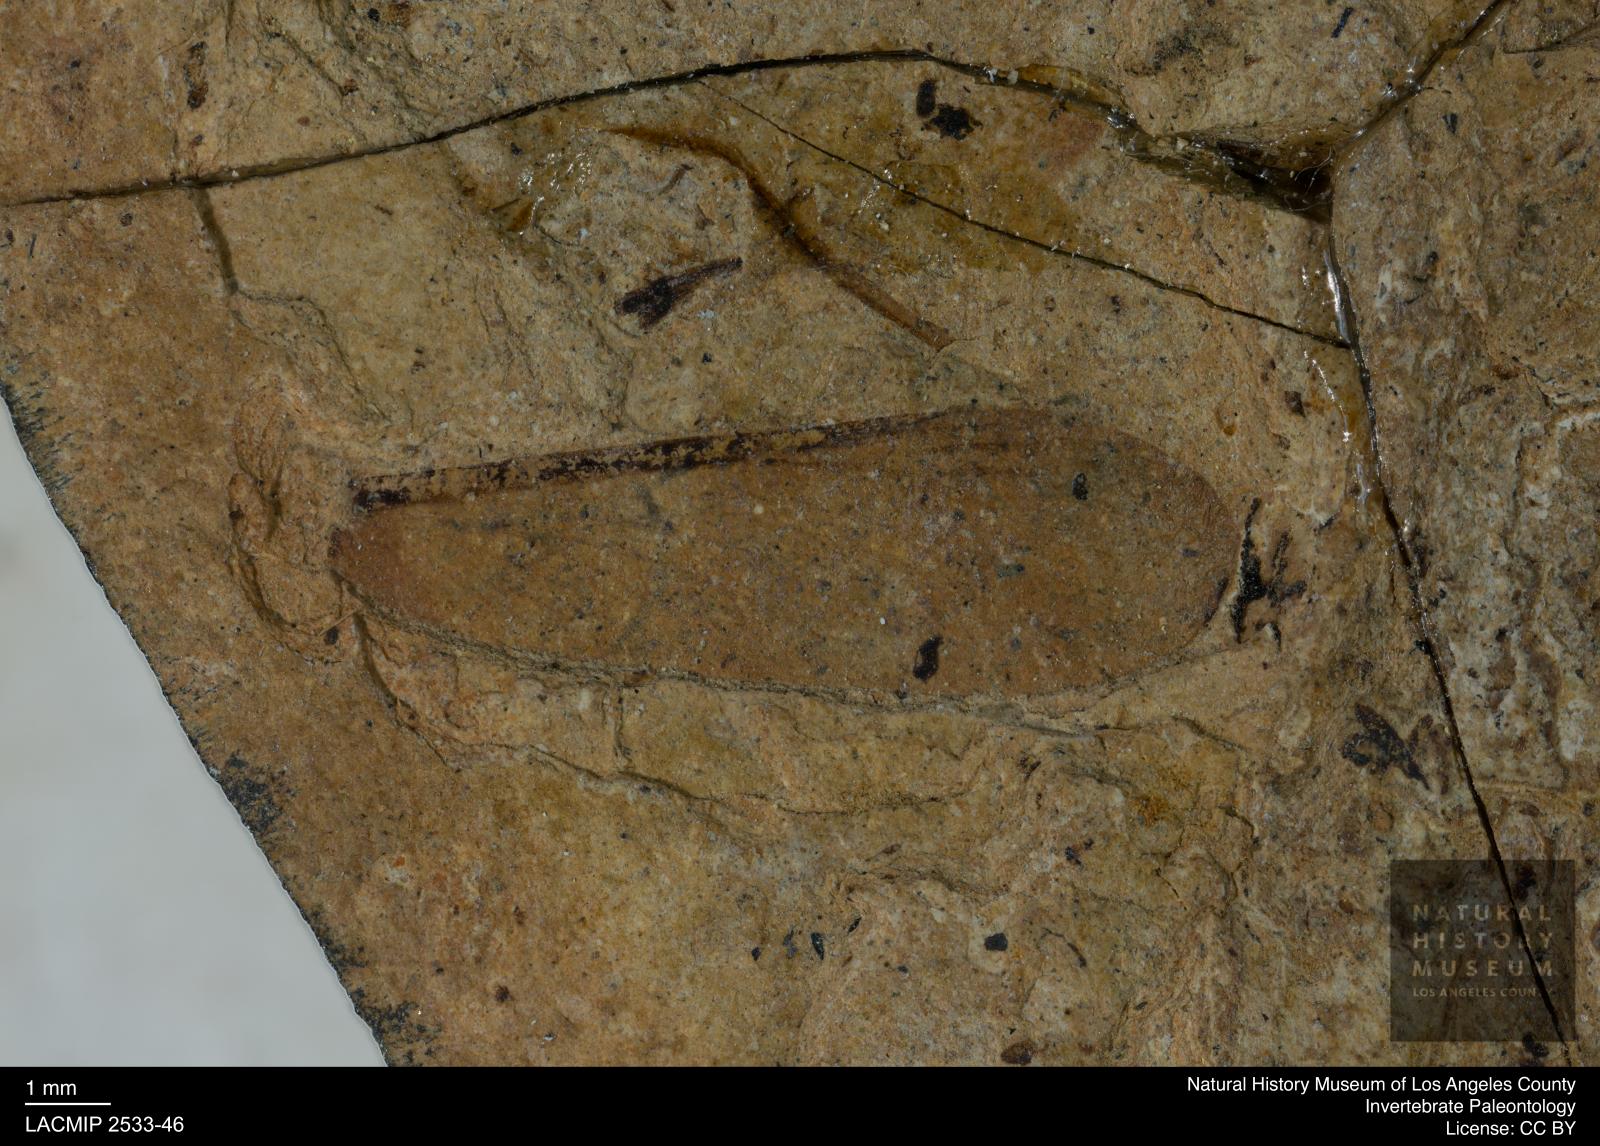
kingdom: Animalia
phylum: Arthropoda
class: Insecta
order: Blattodea
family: Hodotermitidae
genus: Ulmeriella
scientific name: Ulmeriella bauckhorni
